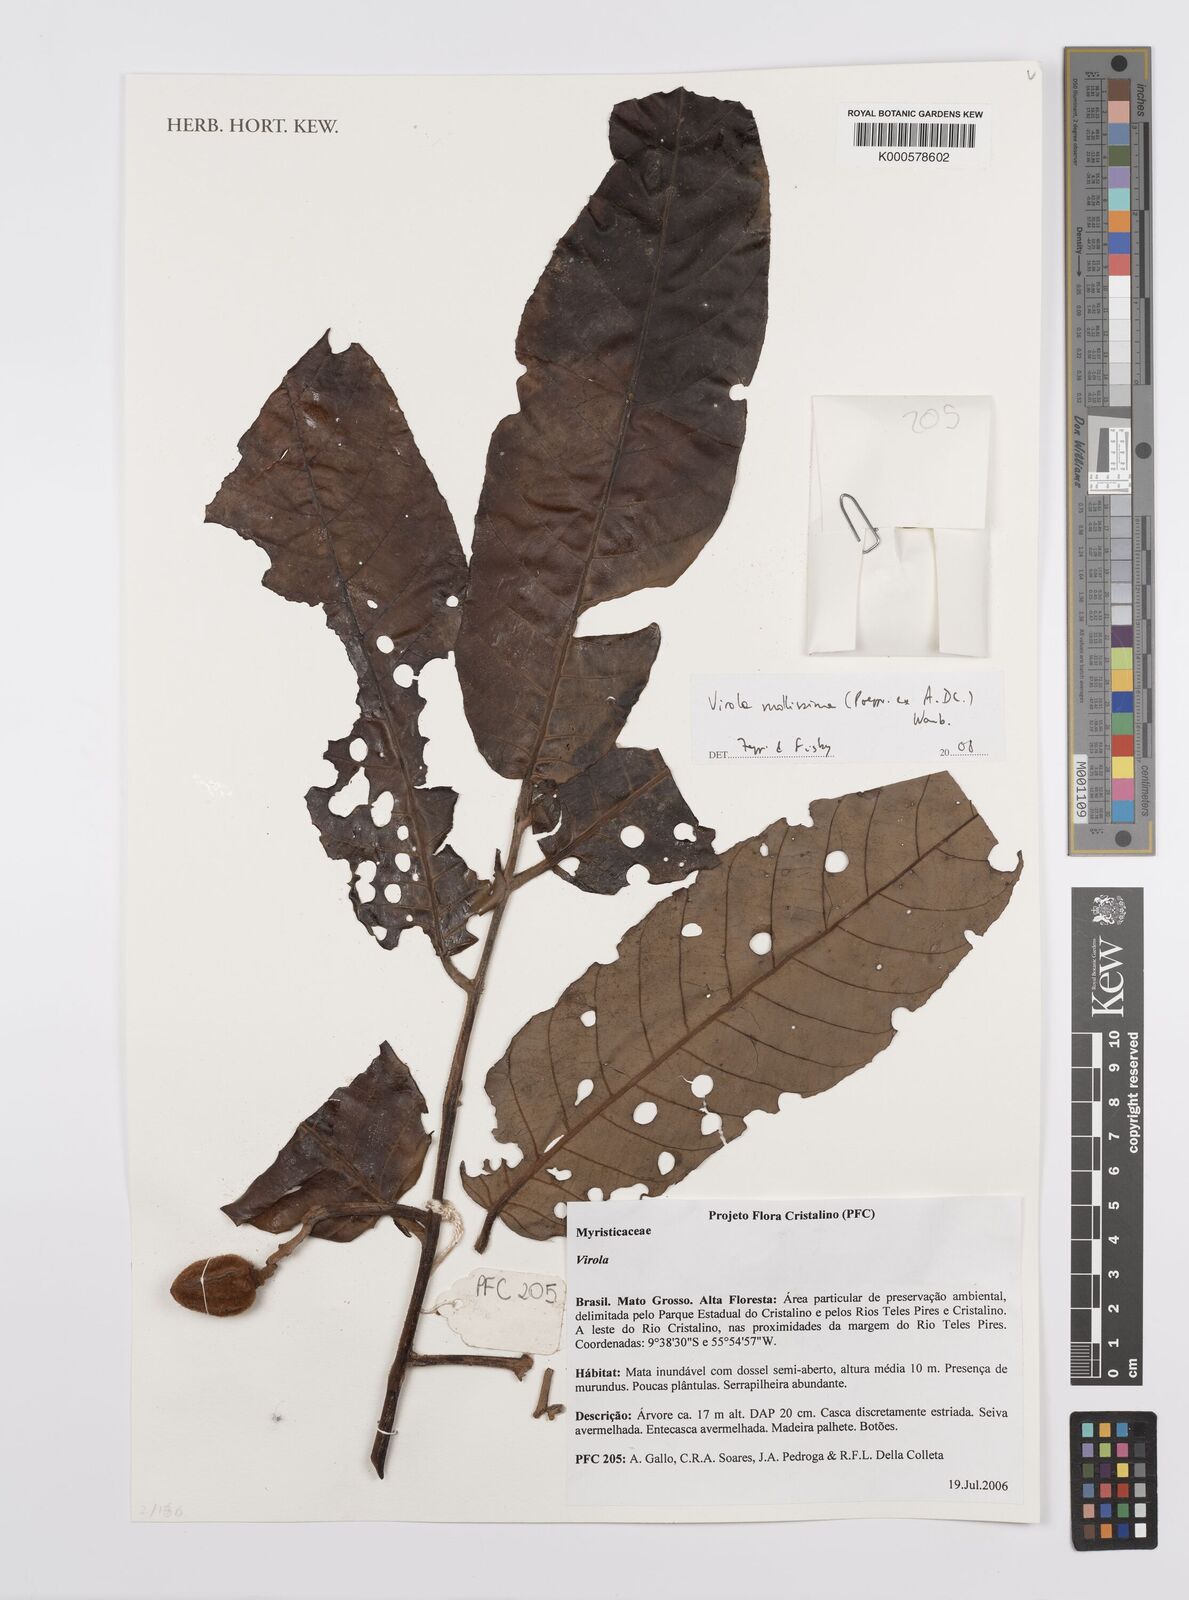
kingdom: Plantae
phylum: Tracheophyta
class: Magnoliopsida
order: Magnoliales
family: Myristicaceae
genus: Virola
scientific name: Virola mollissima
